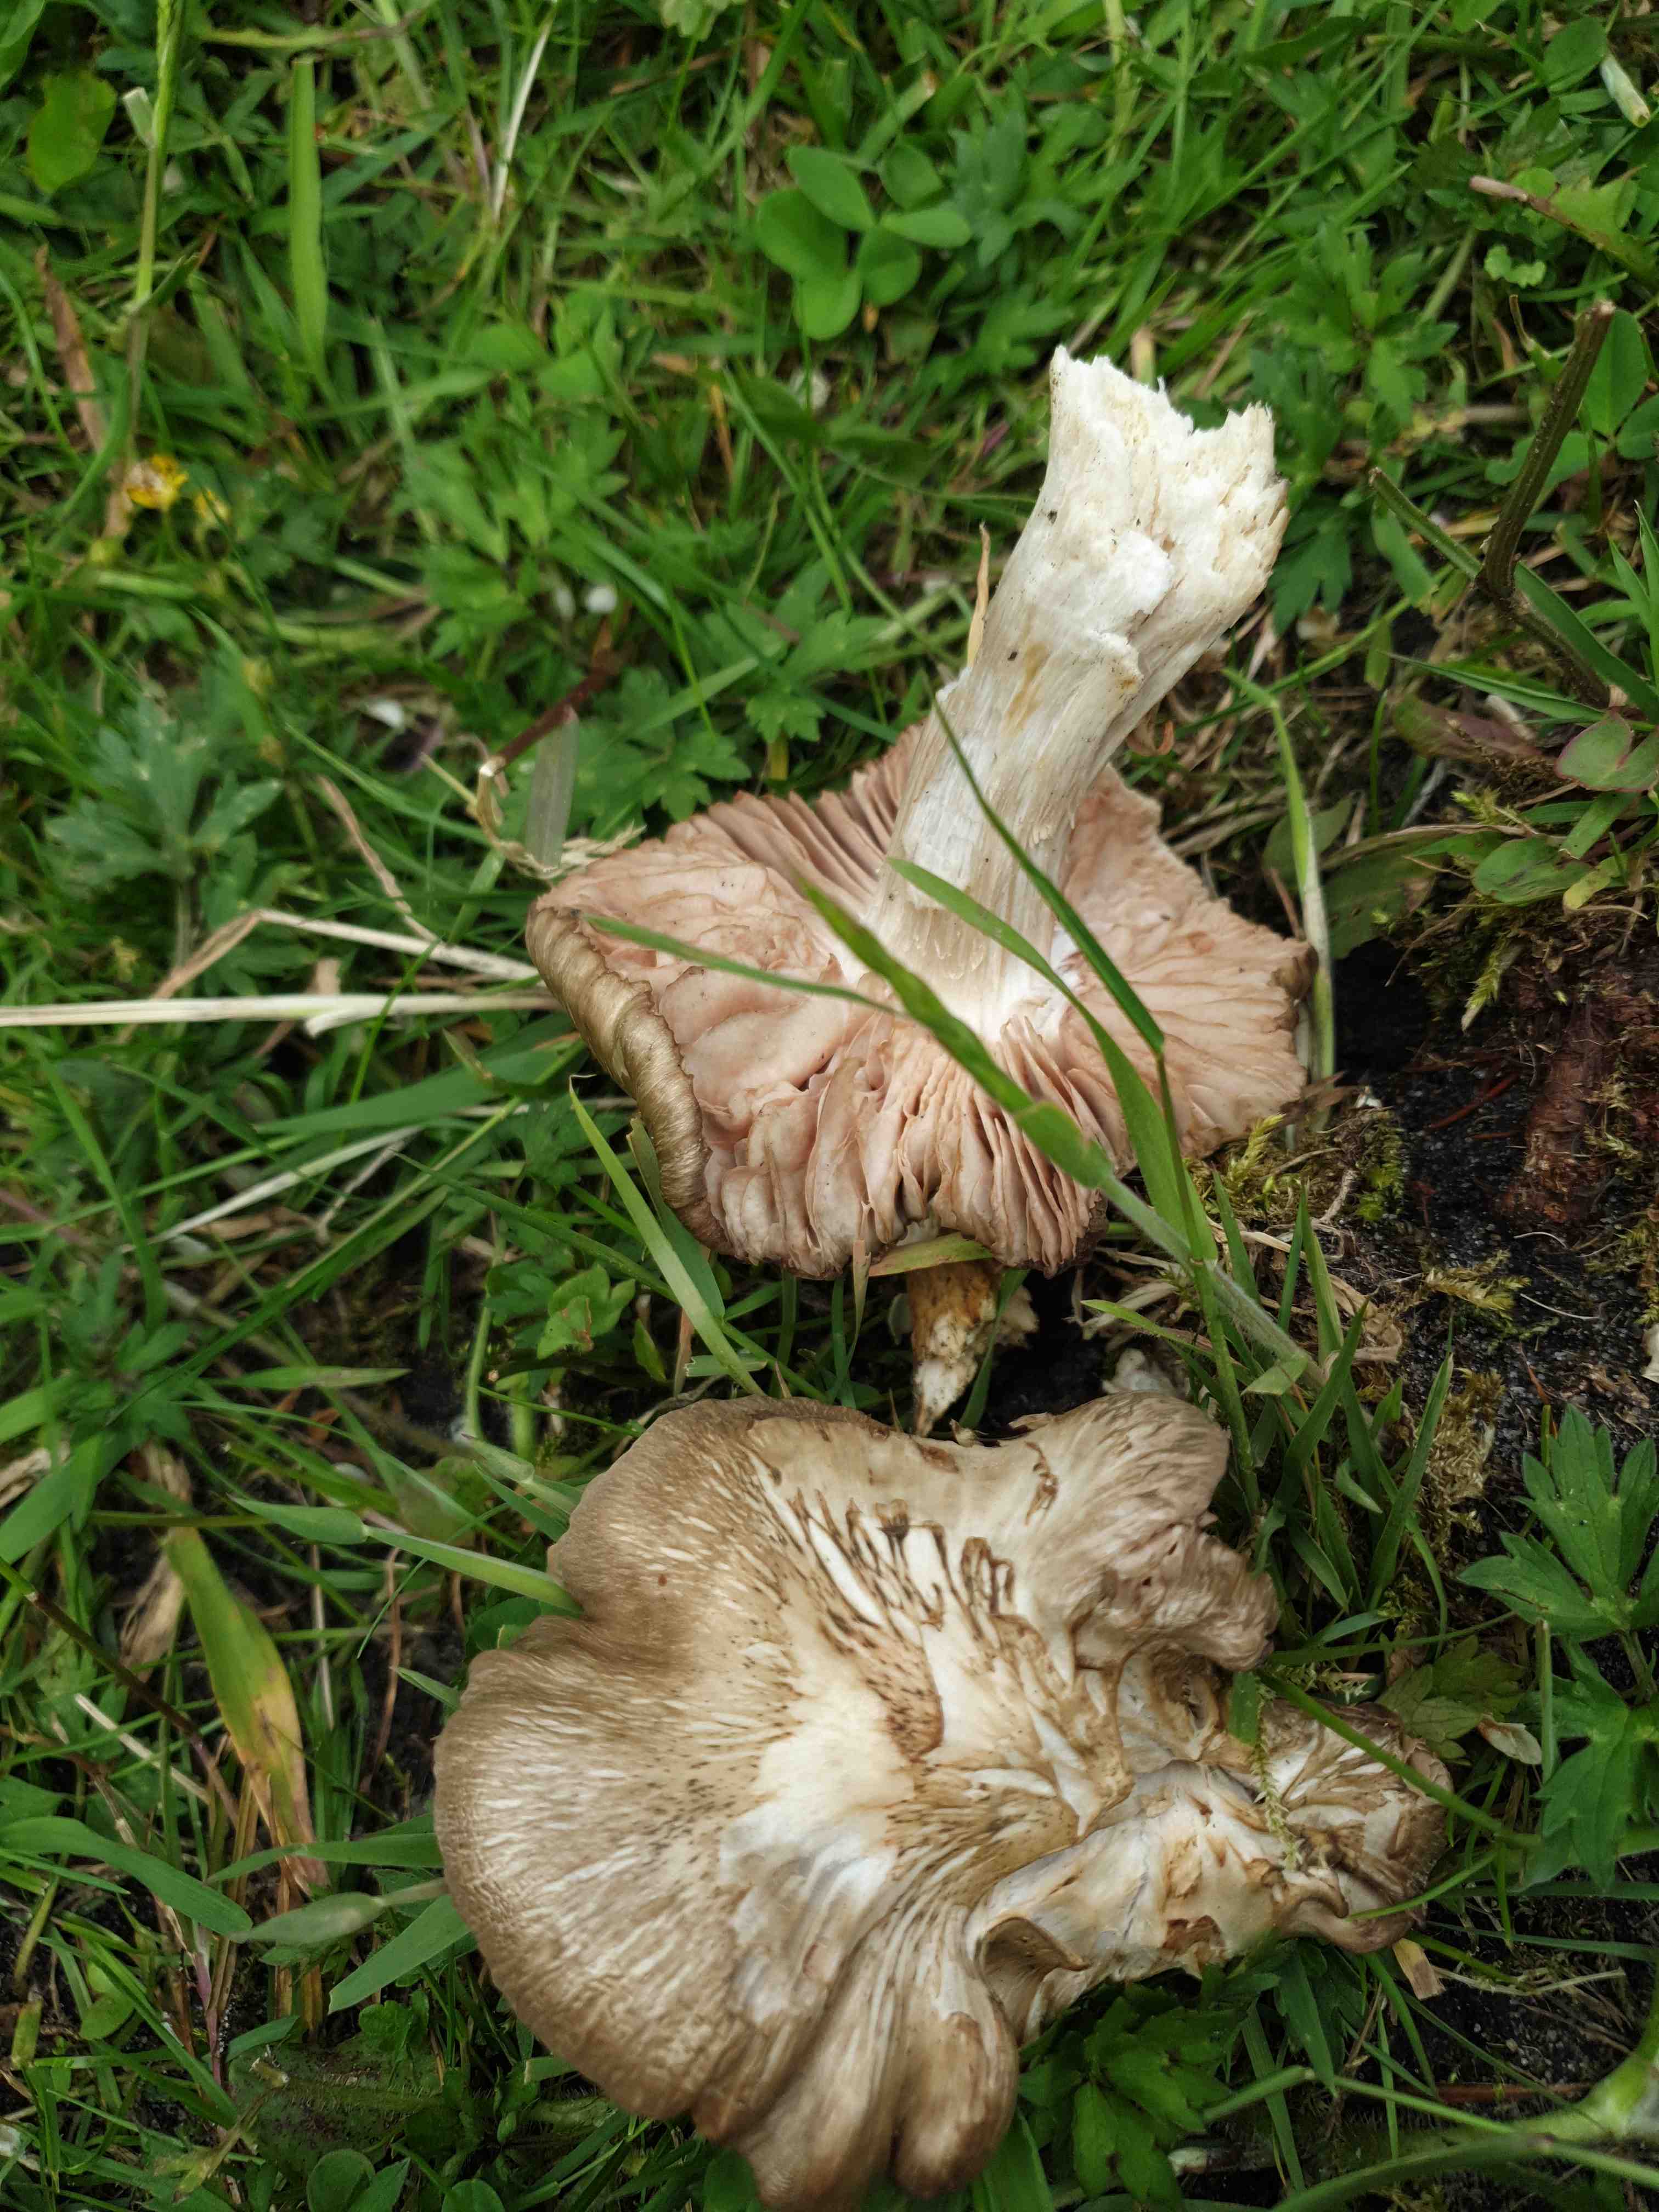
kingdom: Fungi
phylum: Basidiomycota
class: Agaricomycetes
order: Agaricales
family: Entolomataceae
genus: Entoloma
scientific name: Entoloma clypeatum
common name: flammet rødblad
